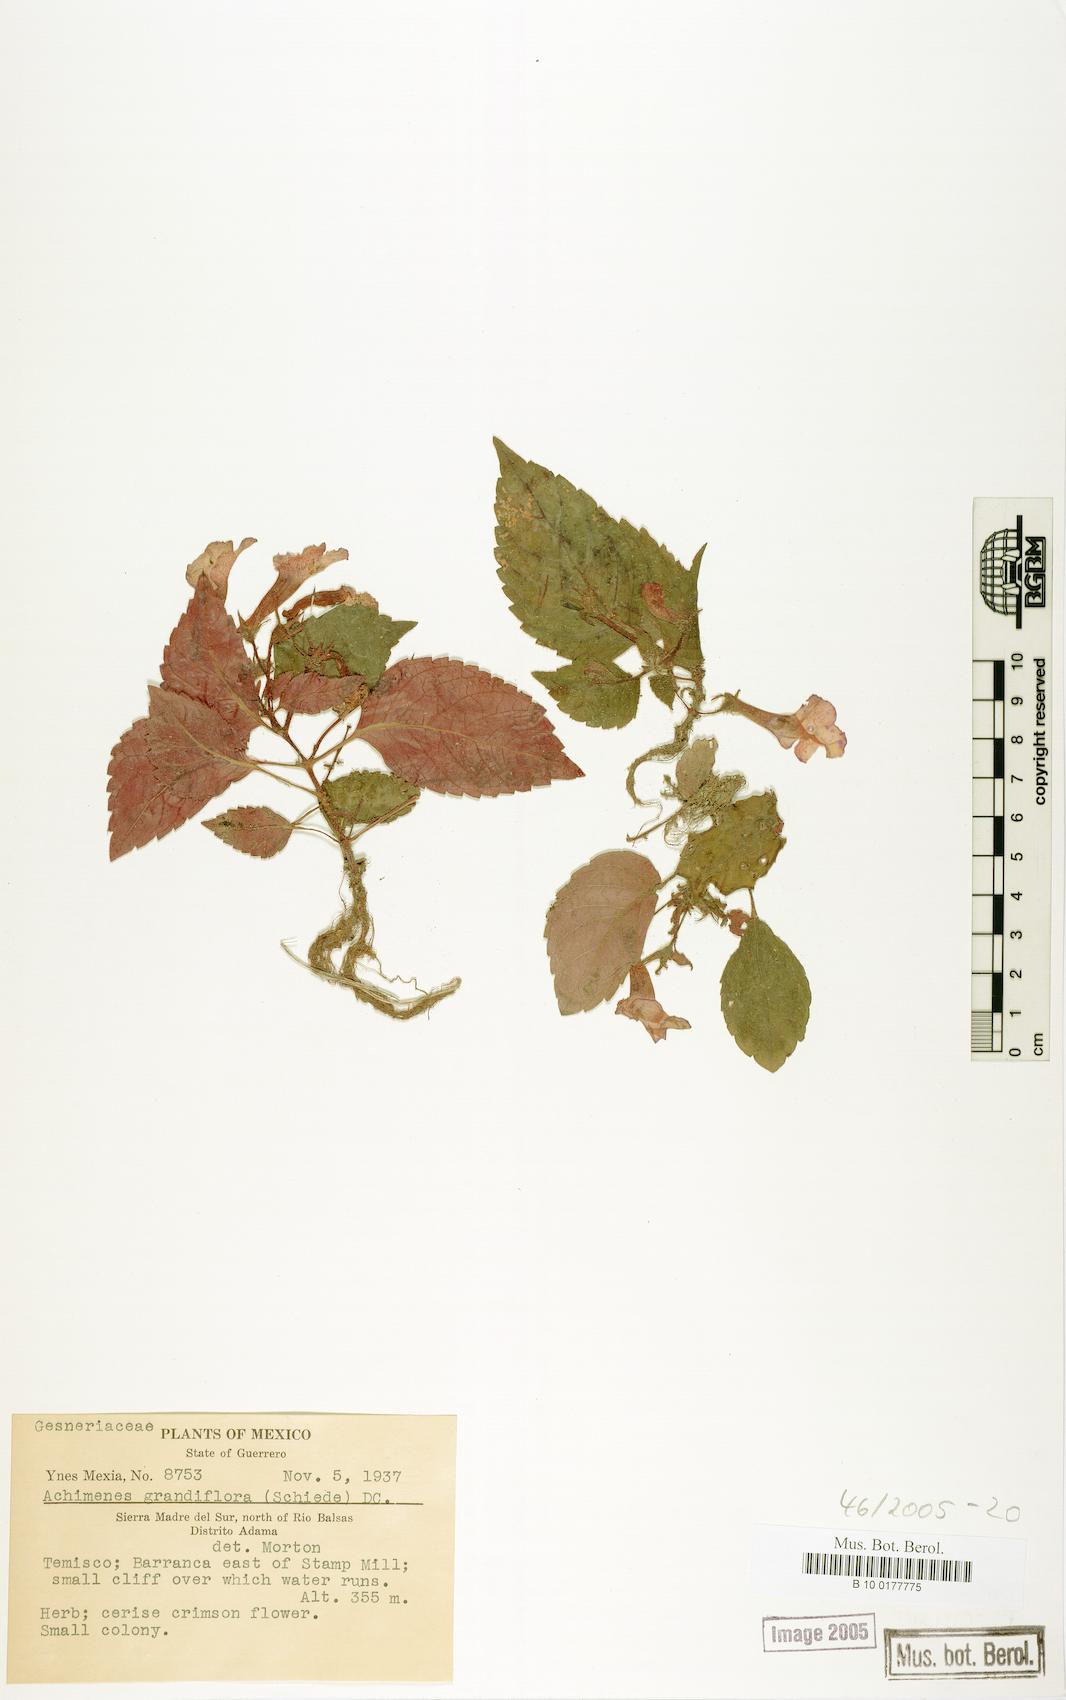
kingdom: Plantae
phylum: Tracheophyta
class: Magnoliopsida
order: Lamiales
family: Gesneriaceae
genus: Achimenes
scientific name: Achimenes grandiflora
